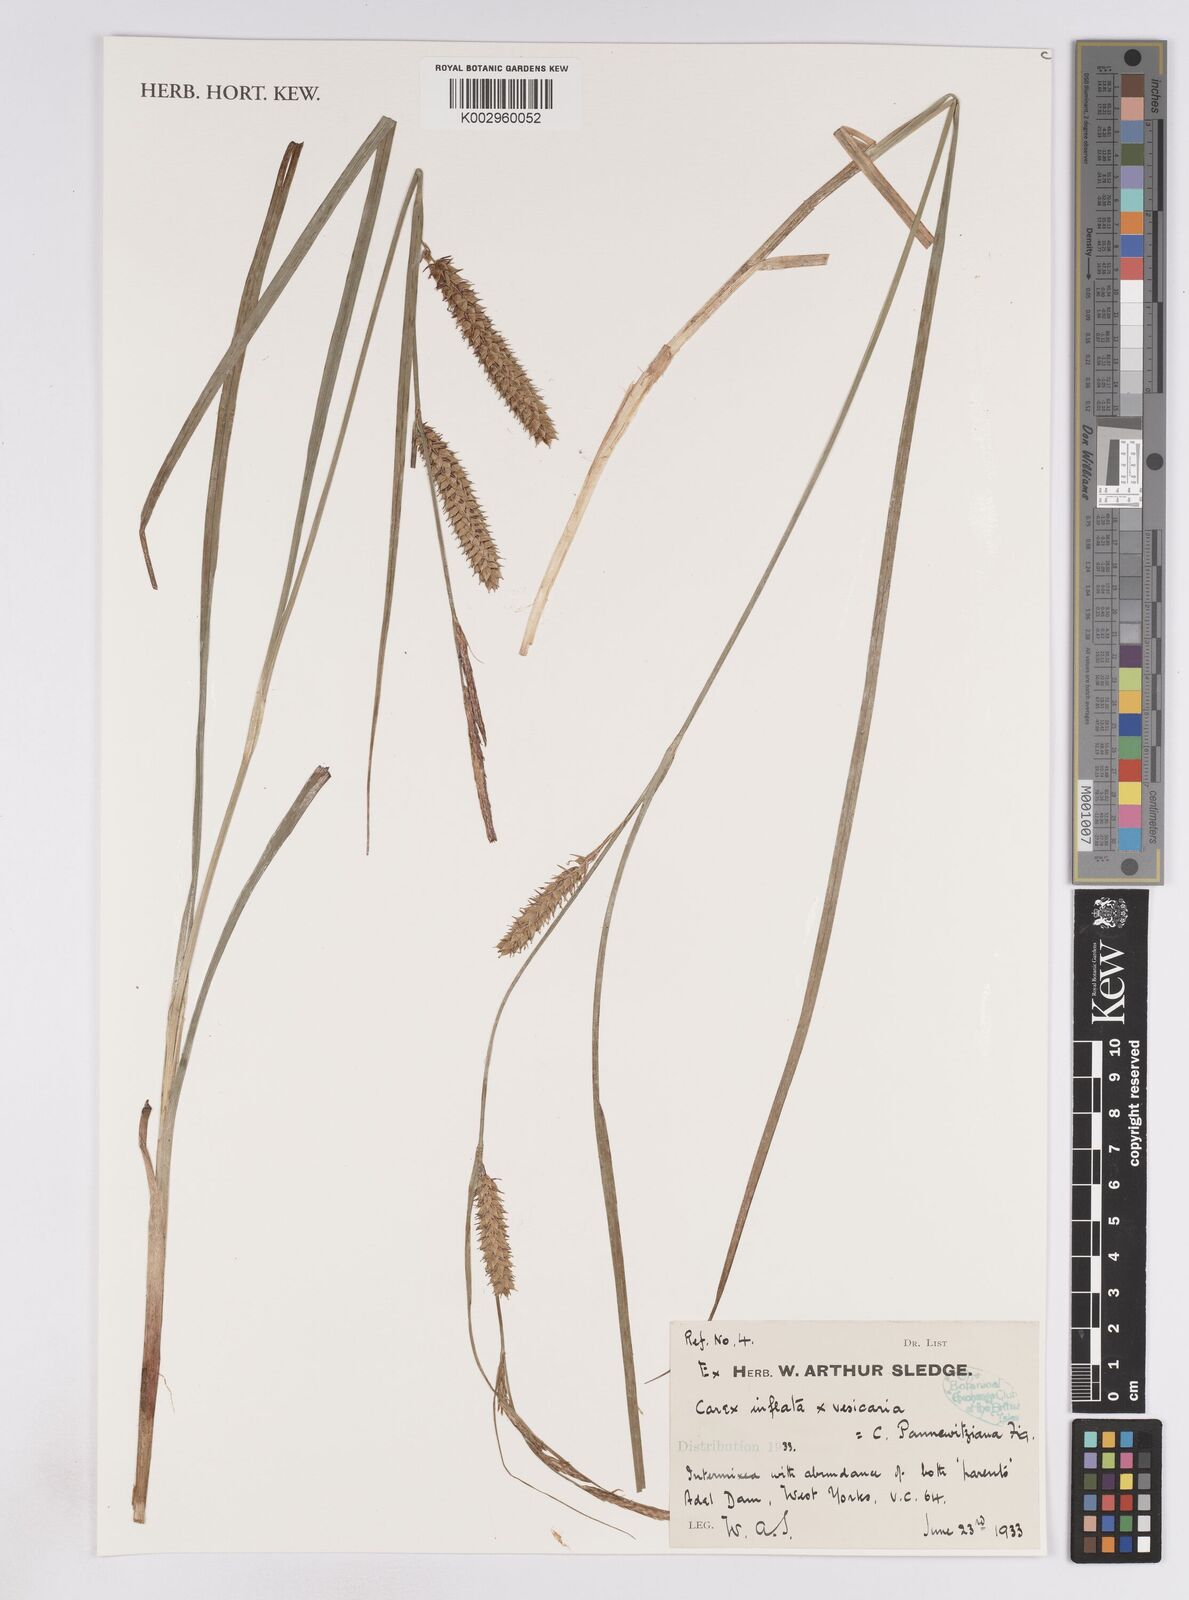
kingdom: Plantae
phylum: Tracheophyta
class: Liliopsida
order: Poales
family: Cyperaceae
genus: Carex
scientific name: Carex
